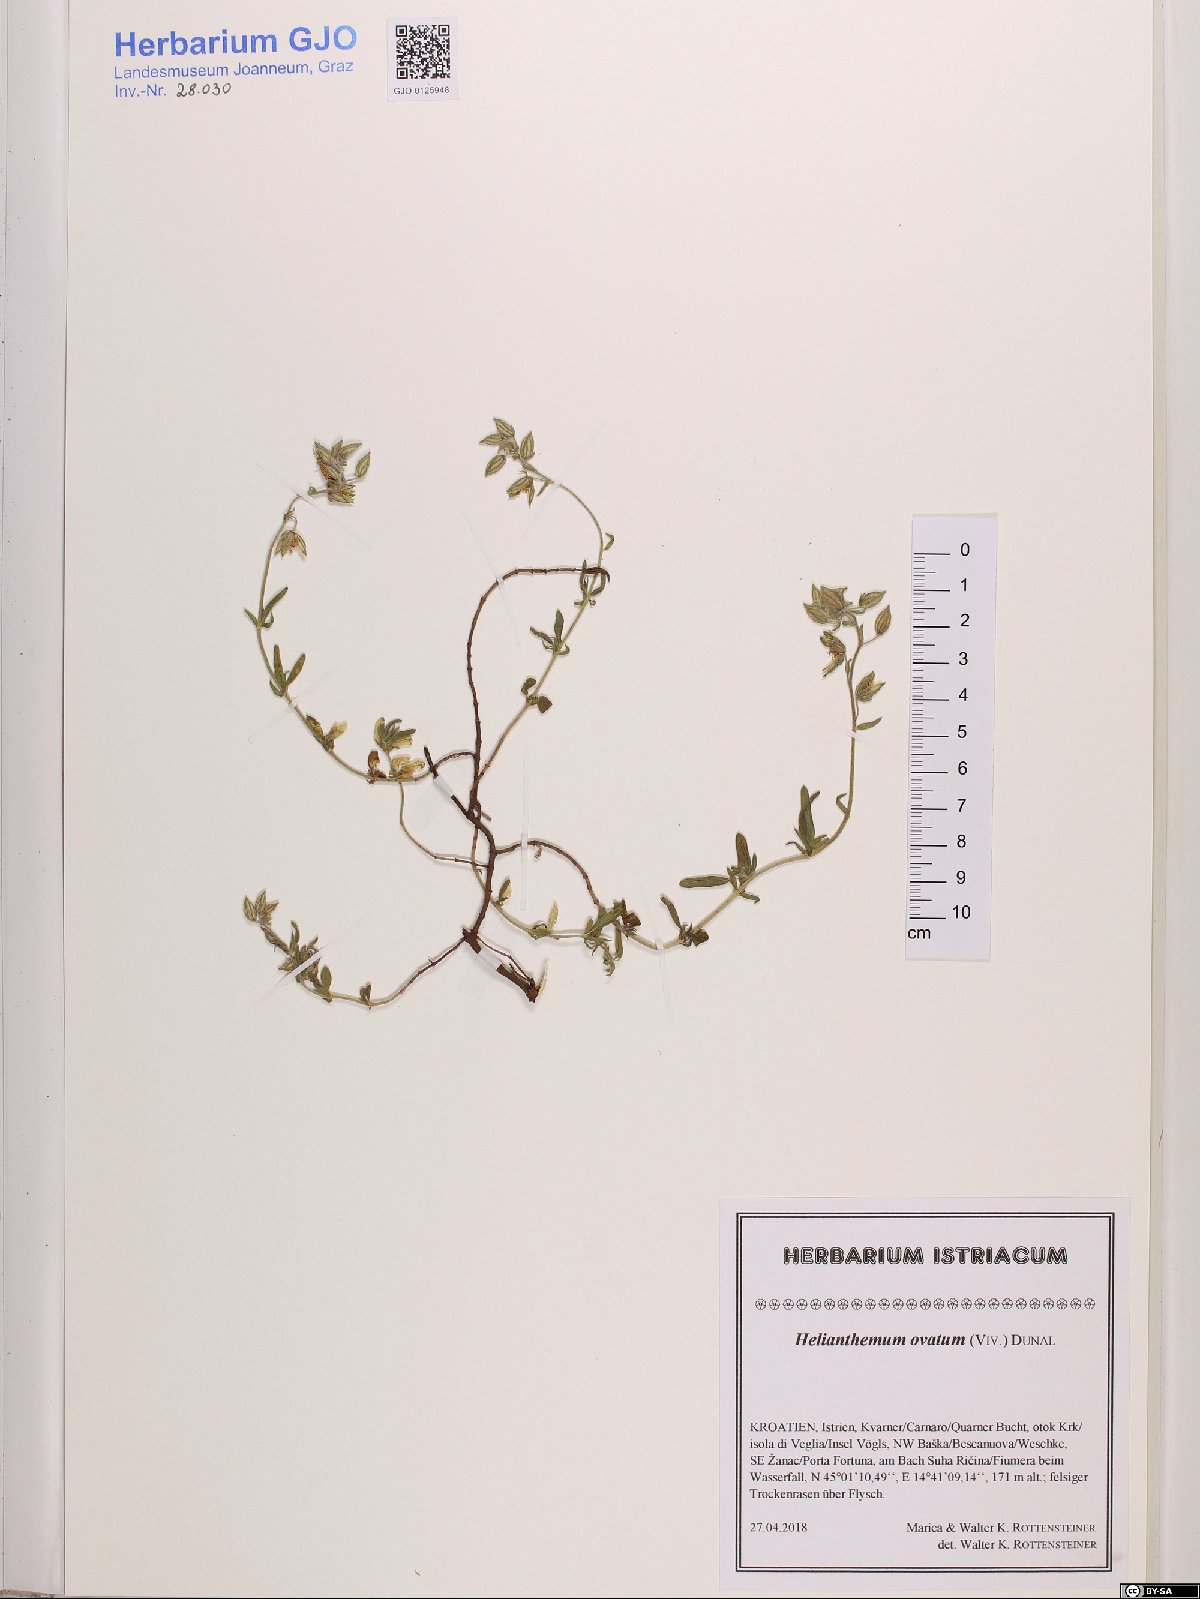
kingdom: Plantae
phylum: Tracheophyta
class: Magnoliopsida
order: Malvales
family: Cistaceae
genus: Helianthemum
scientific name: Helianthemum nummularium
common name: Common rock-rose
